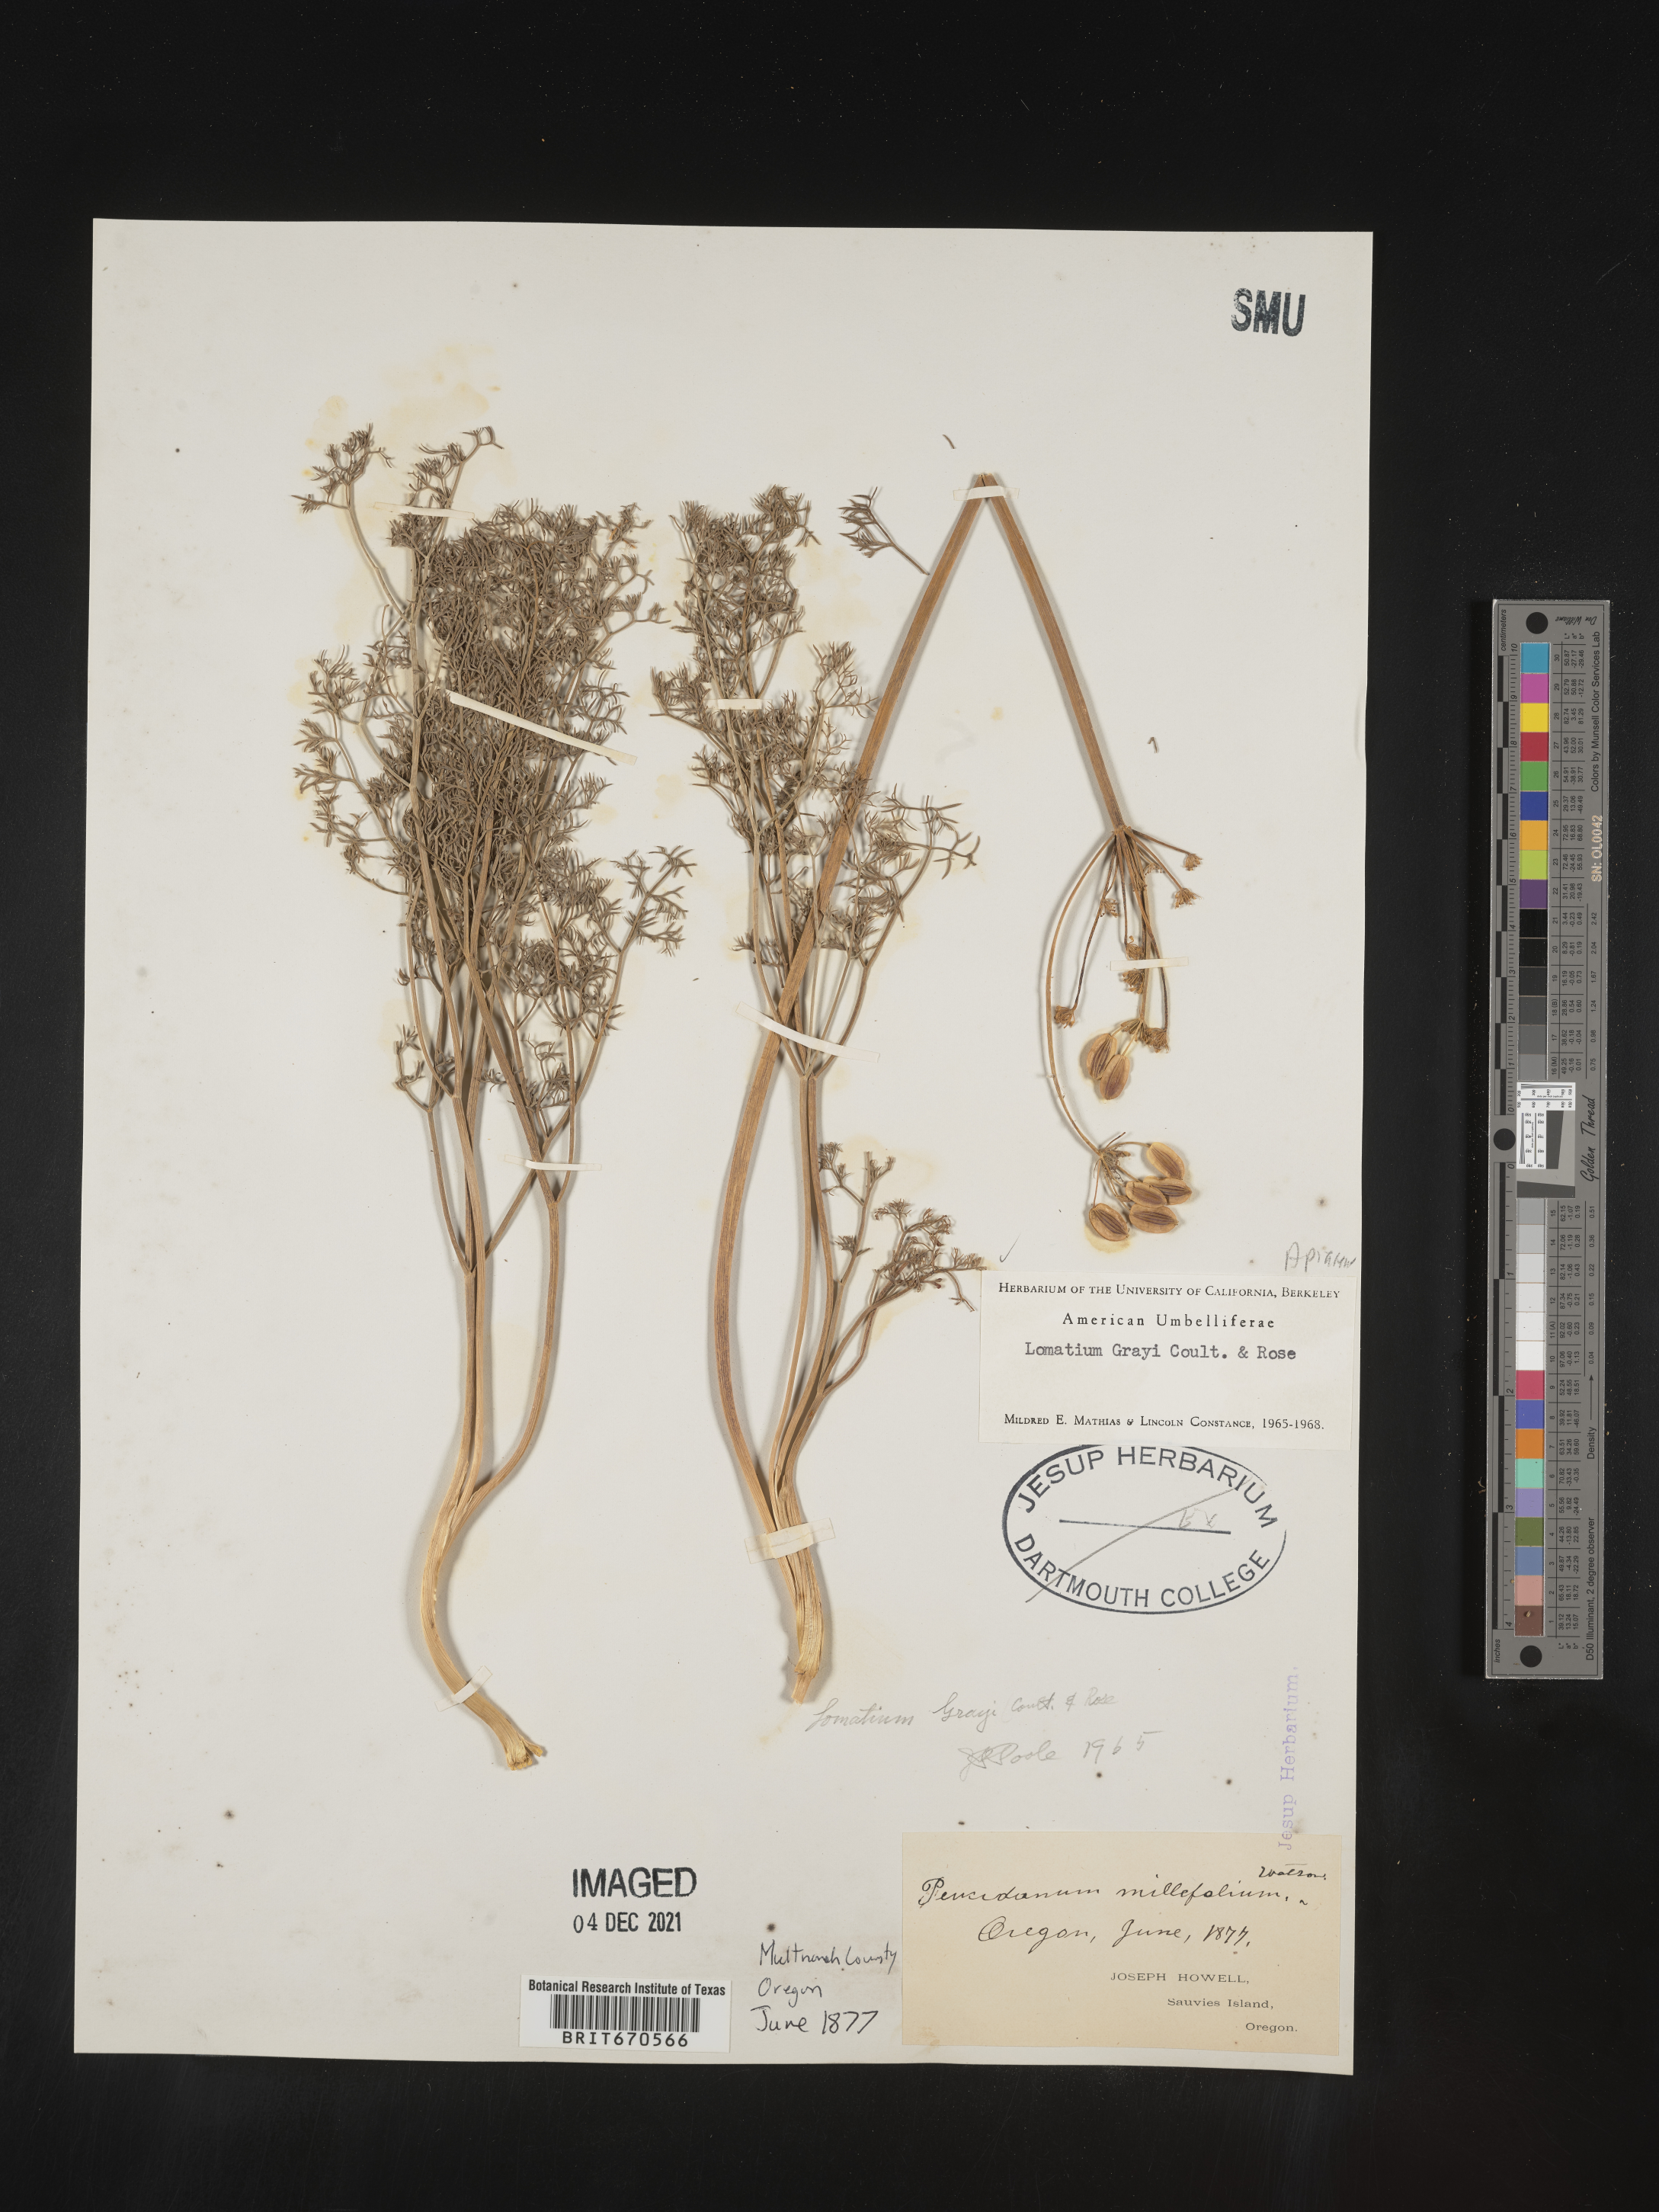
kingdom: Plantae
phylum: Tracheophyta
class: Magnoliopsida
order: Apiales
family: Apiaceae
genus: Lomatium
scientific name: Lomatium grayi
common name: Milfoil lomatium
